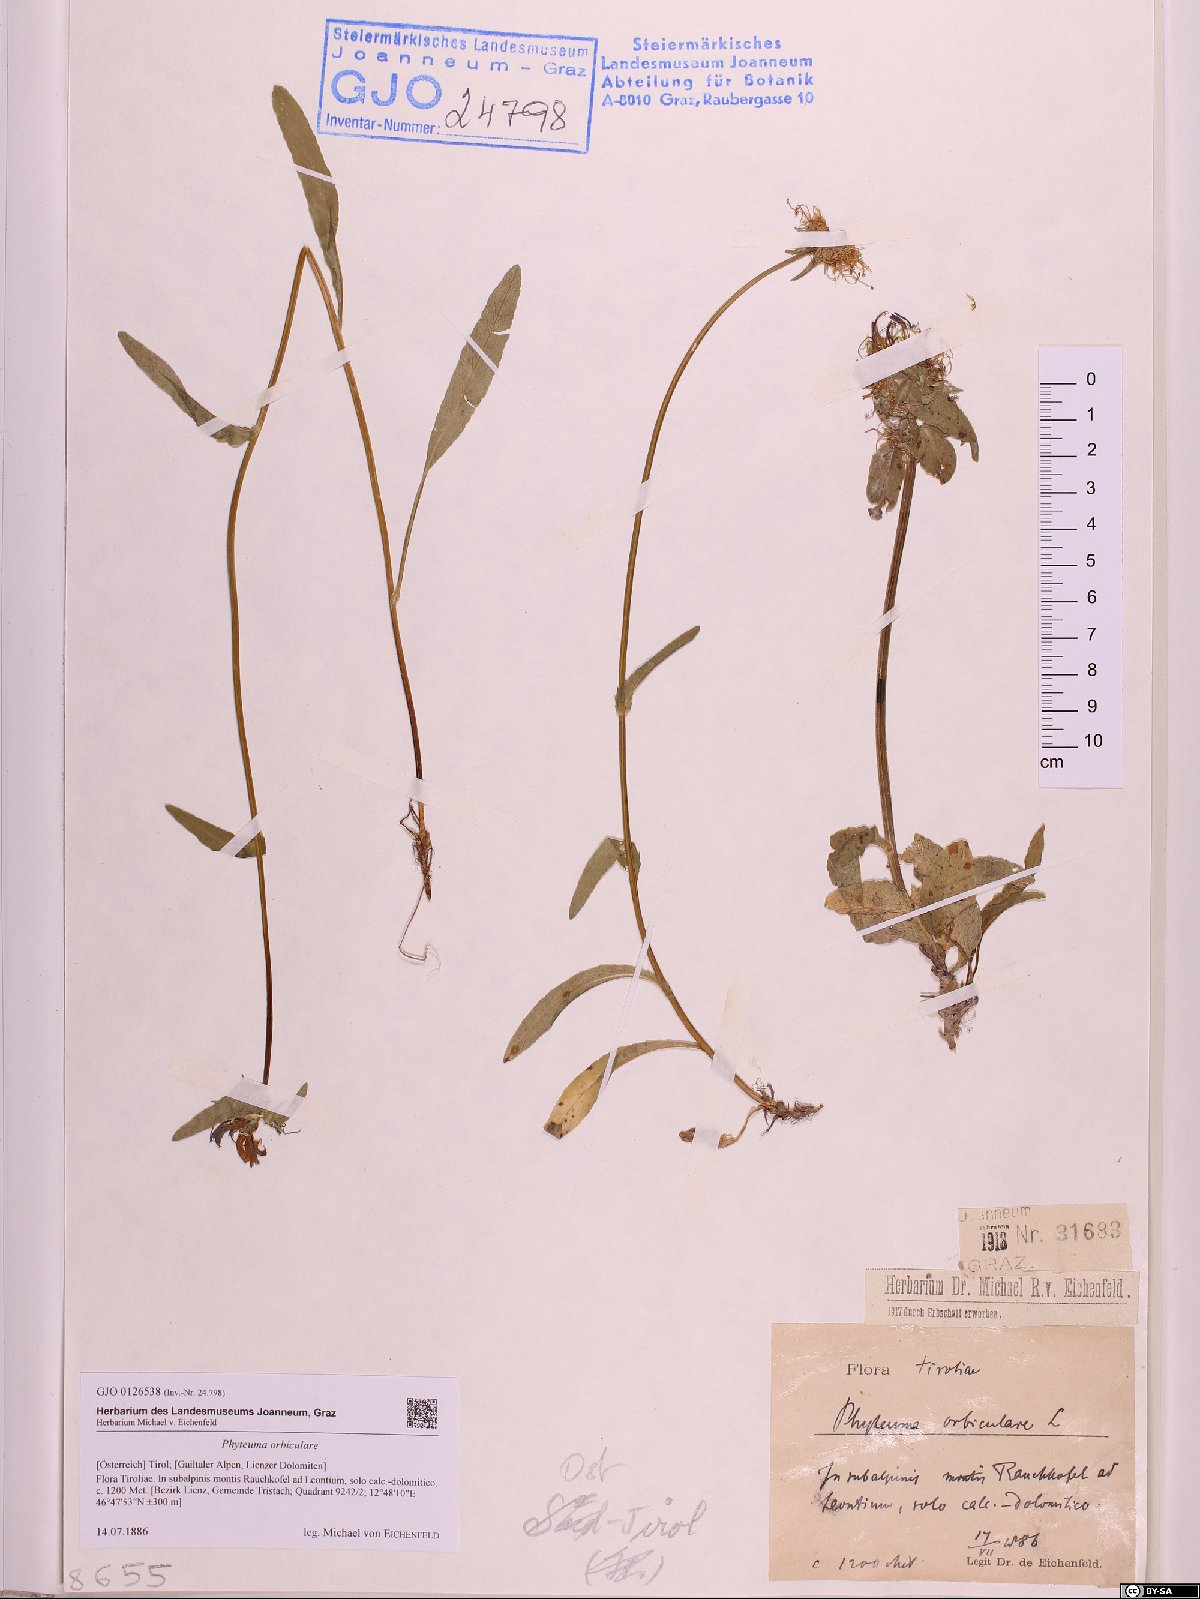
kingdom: Plantae
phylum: Tracheophyta
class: Magnoliopsida
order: Asterales
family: Campanulaceae
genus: Phyteuma
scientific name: Phyteuma orbiculare
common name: Round-headed rampion
